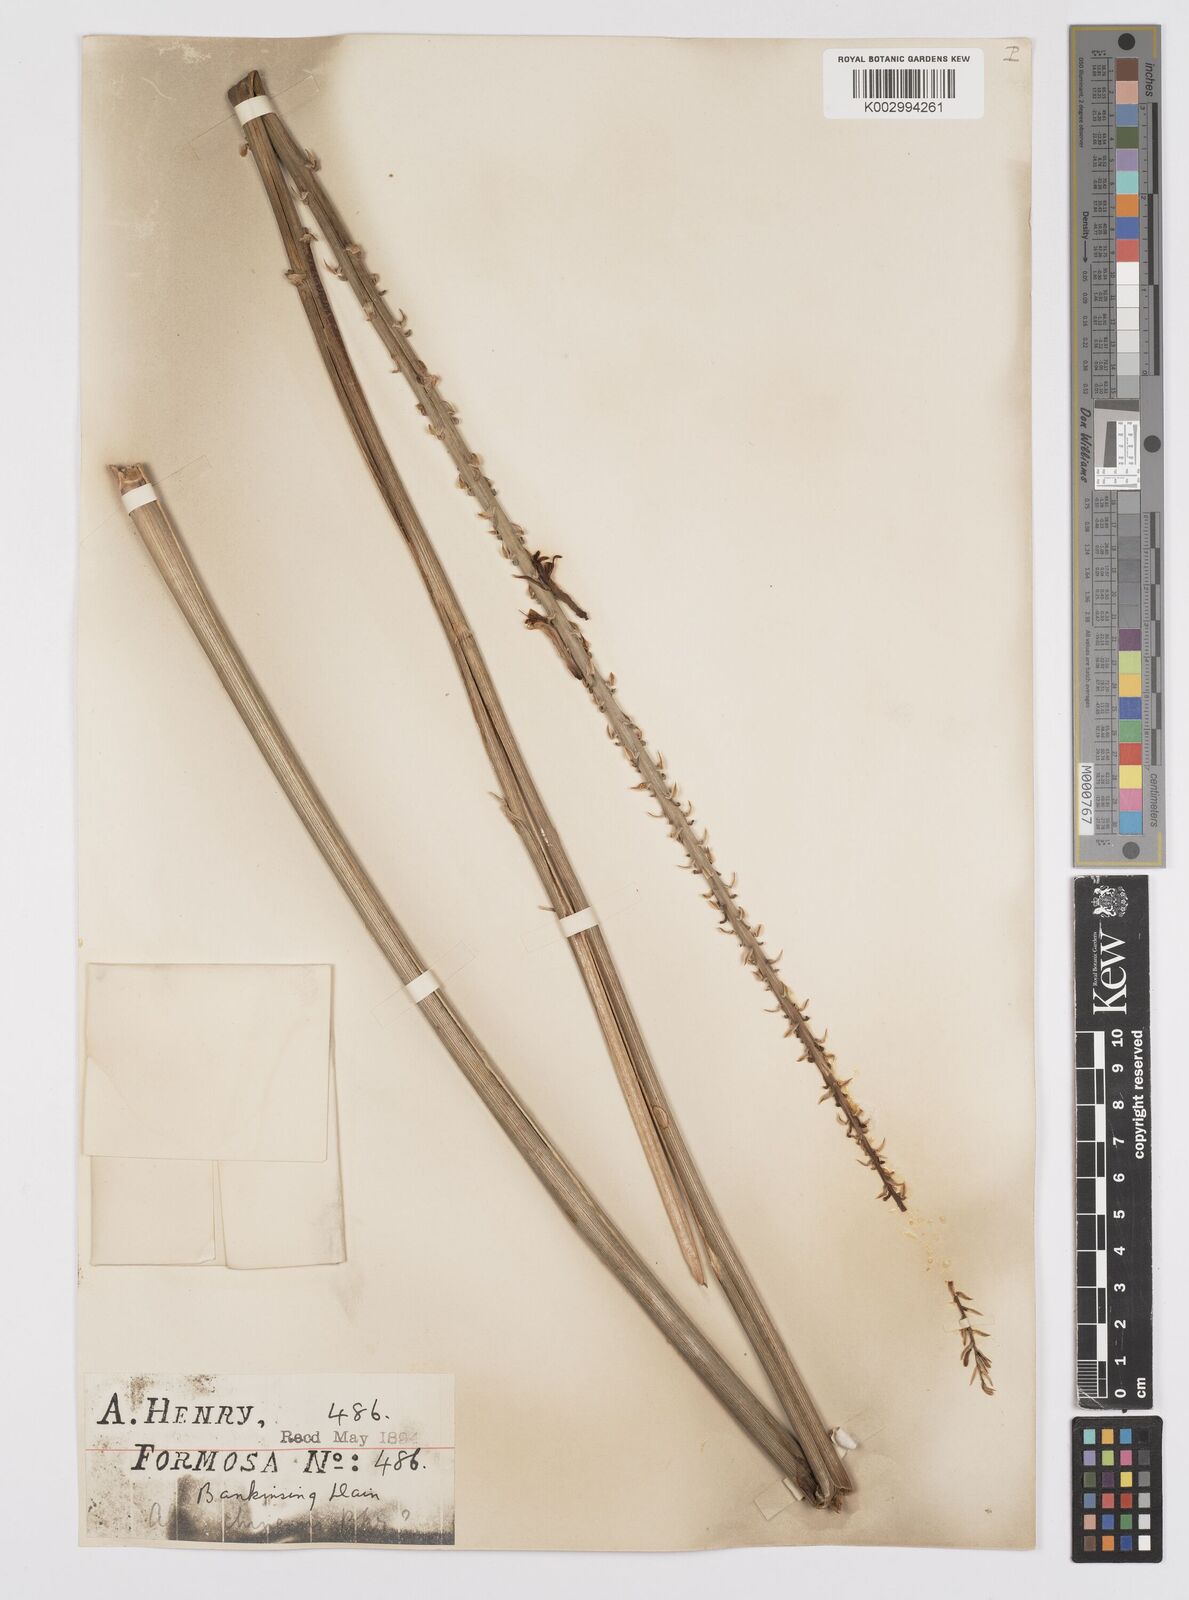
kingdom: Plantae
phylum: Tracheophyta
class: Liliopsida
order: Asparagales
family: Asphodelaceae
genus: Aloe
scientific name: Aloe vera
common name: Barbados aloe
